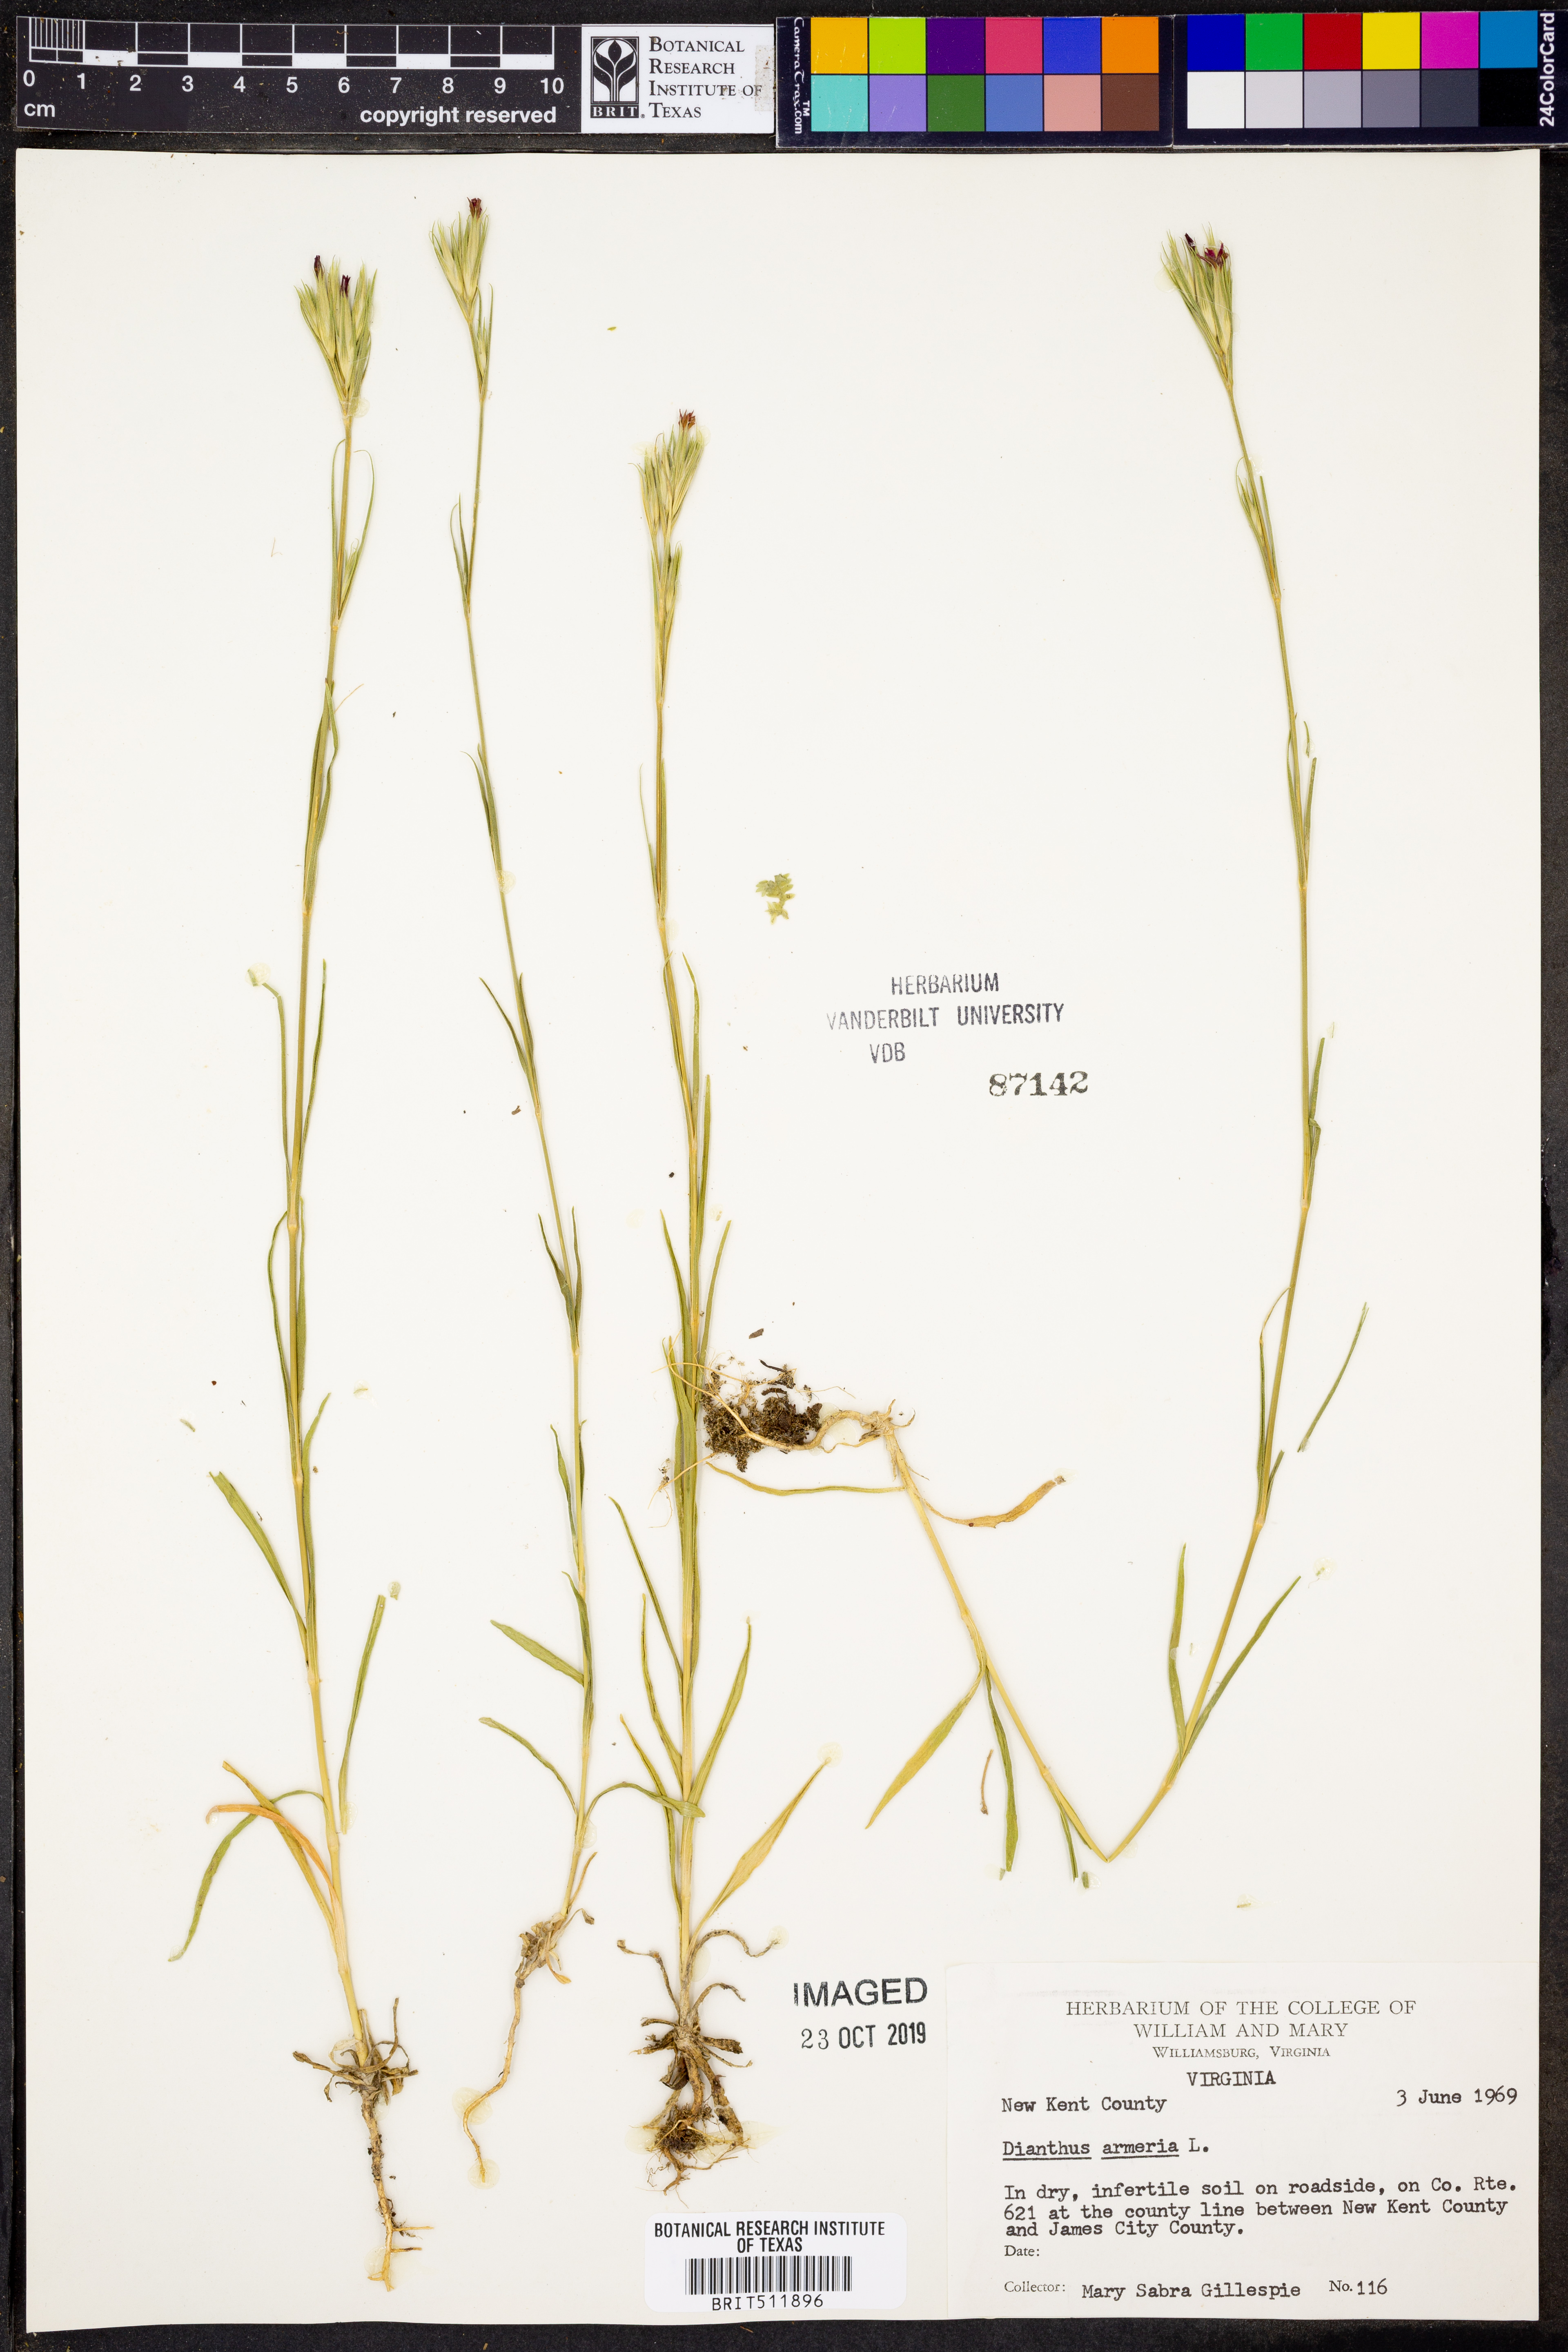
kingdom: Plantae
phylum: Tracheophyta
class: Magnoliopsida
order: Caryophyllales
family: Caryophyllaceae
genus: Dianthus
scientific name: Dianthus armeria
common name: Deptford pink
